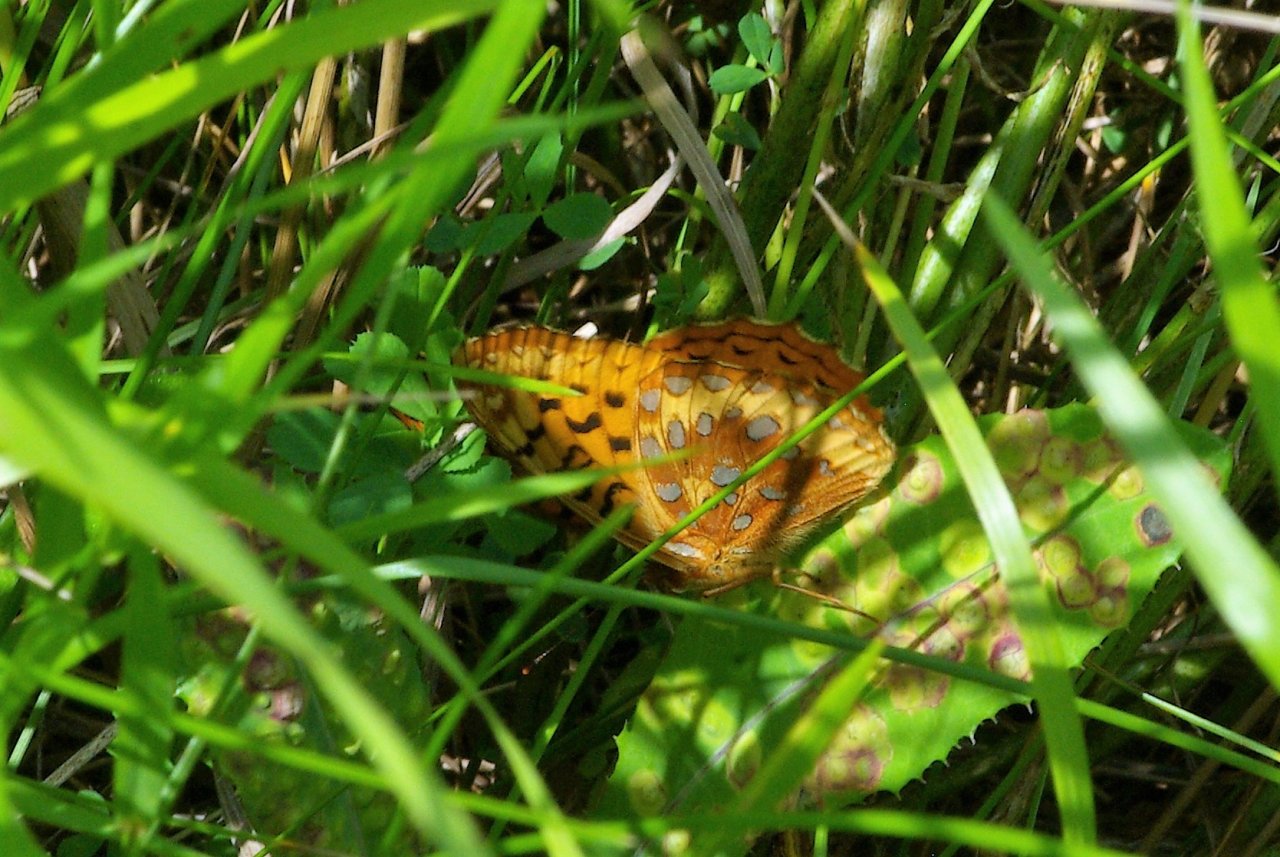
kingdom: Animalia
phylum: Arthropoda
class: Insecta
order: Lepidoptera
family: Nymphalidae
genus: Speyeria
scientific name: Speyeria cybele
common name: Great Spangled Fritillary
